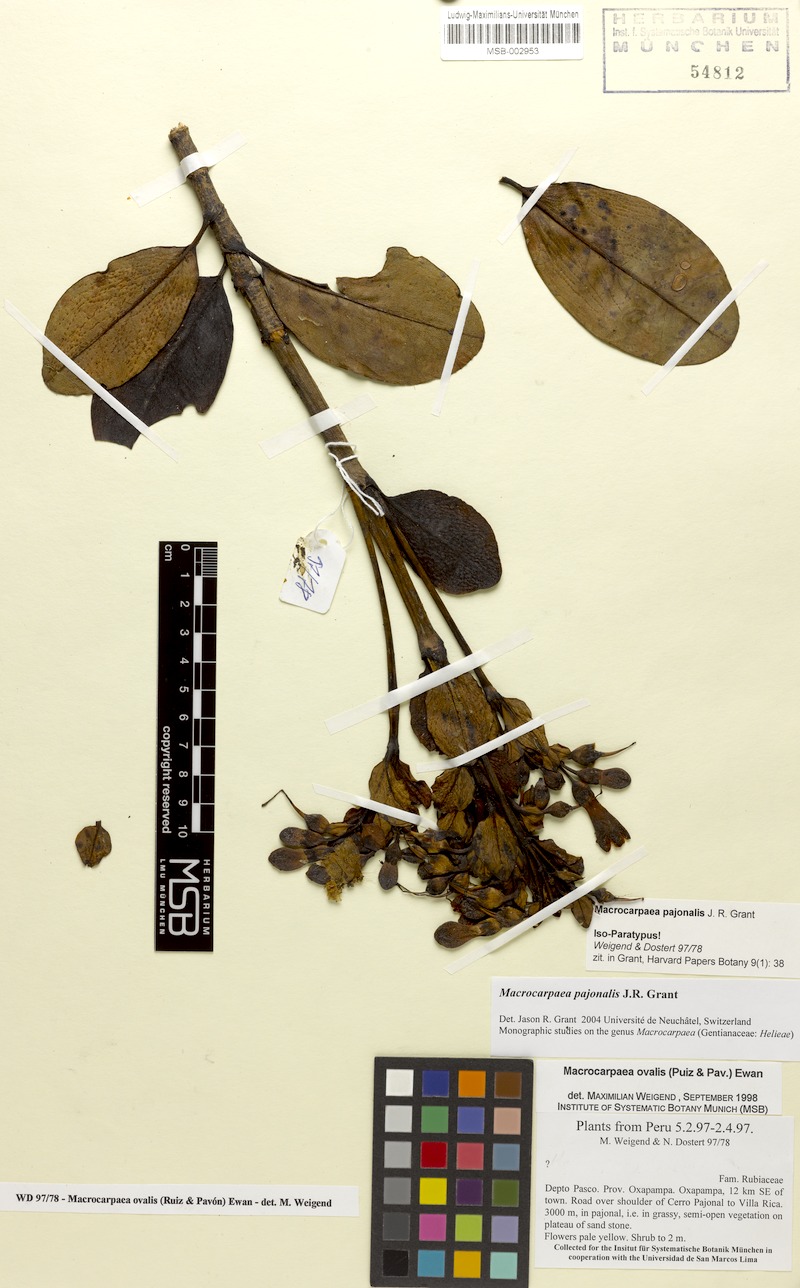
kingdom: Plantae
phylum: Tracheophyta
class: Magnoliopsida
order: Gentianales
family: Gentianaceae
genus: Macrocarpaea
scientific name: Macrocarpaea pajonalis
